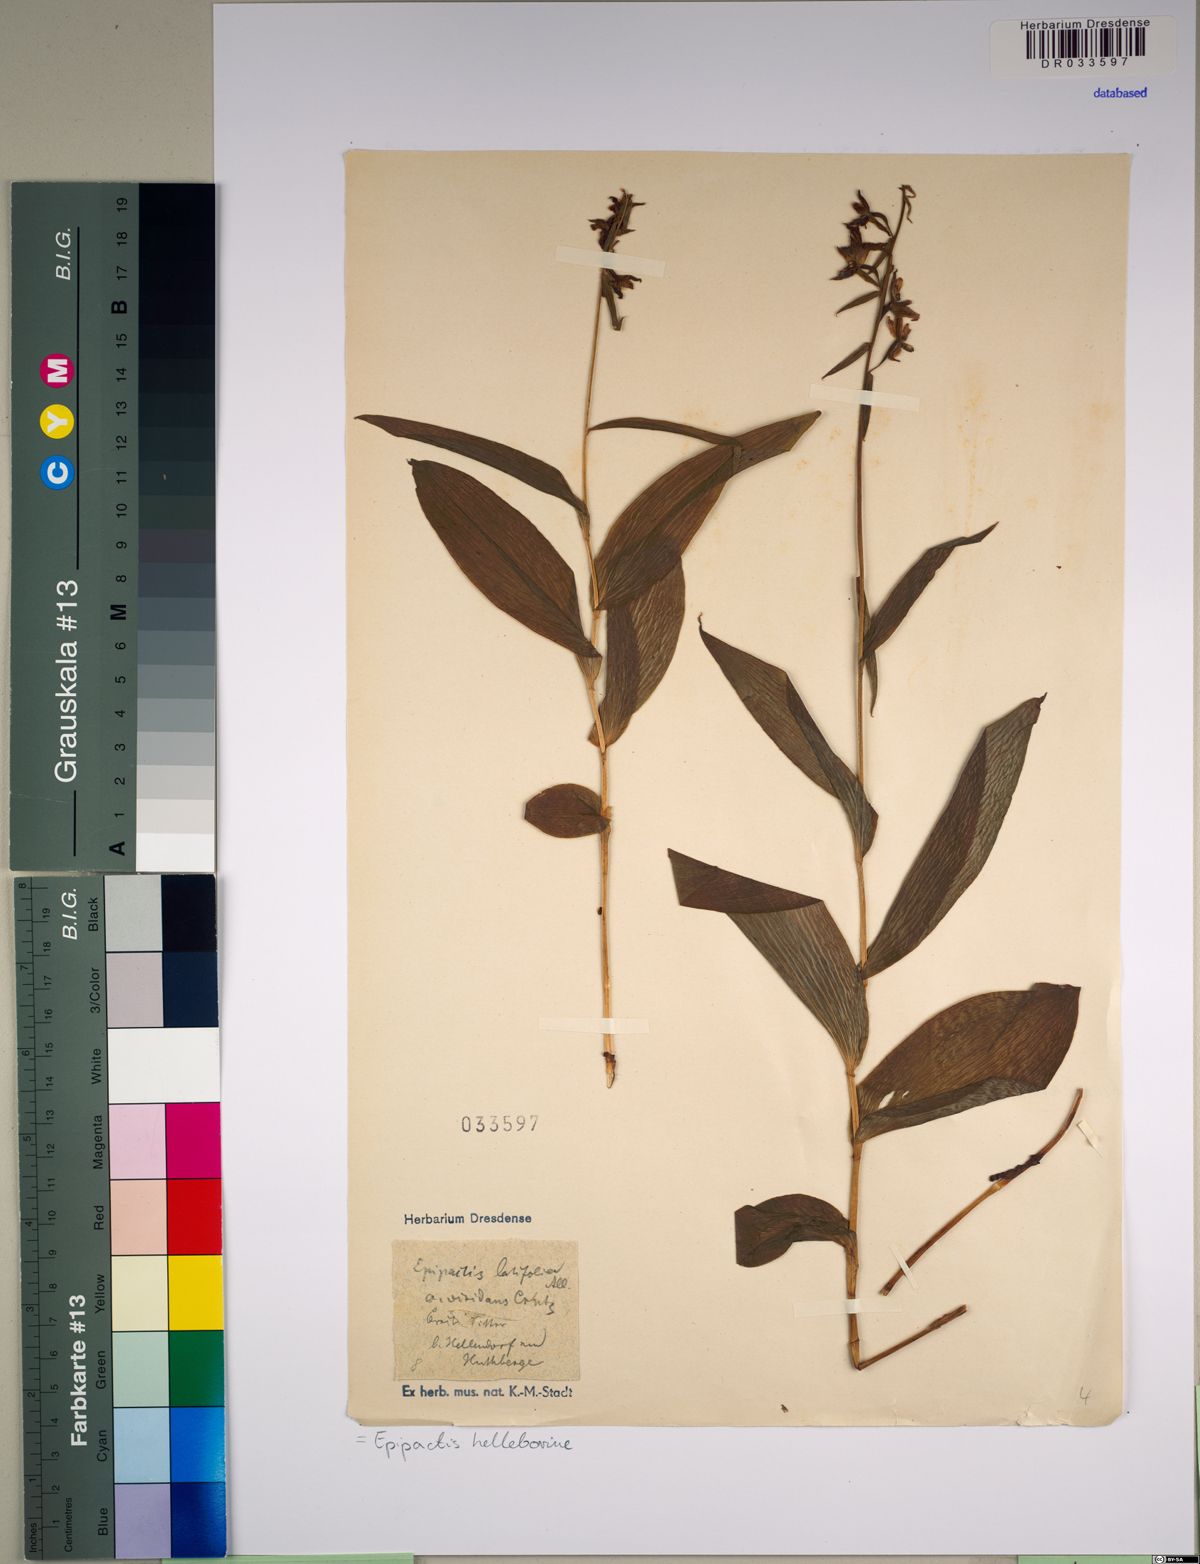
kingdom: Plantae
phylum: Tracheophyta
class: Liliopsida
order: Asparagales
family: Orchidaceae
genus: Epipactis
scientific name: Epipactis helleborine
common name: Broad-leaved helleborine
